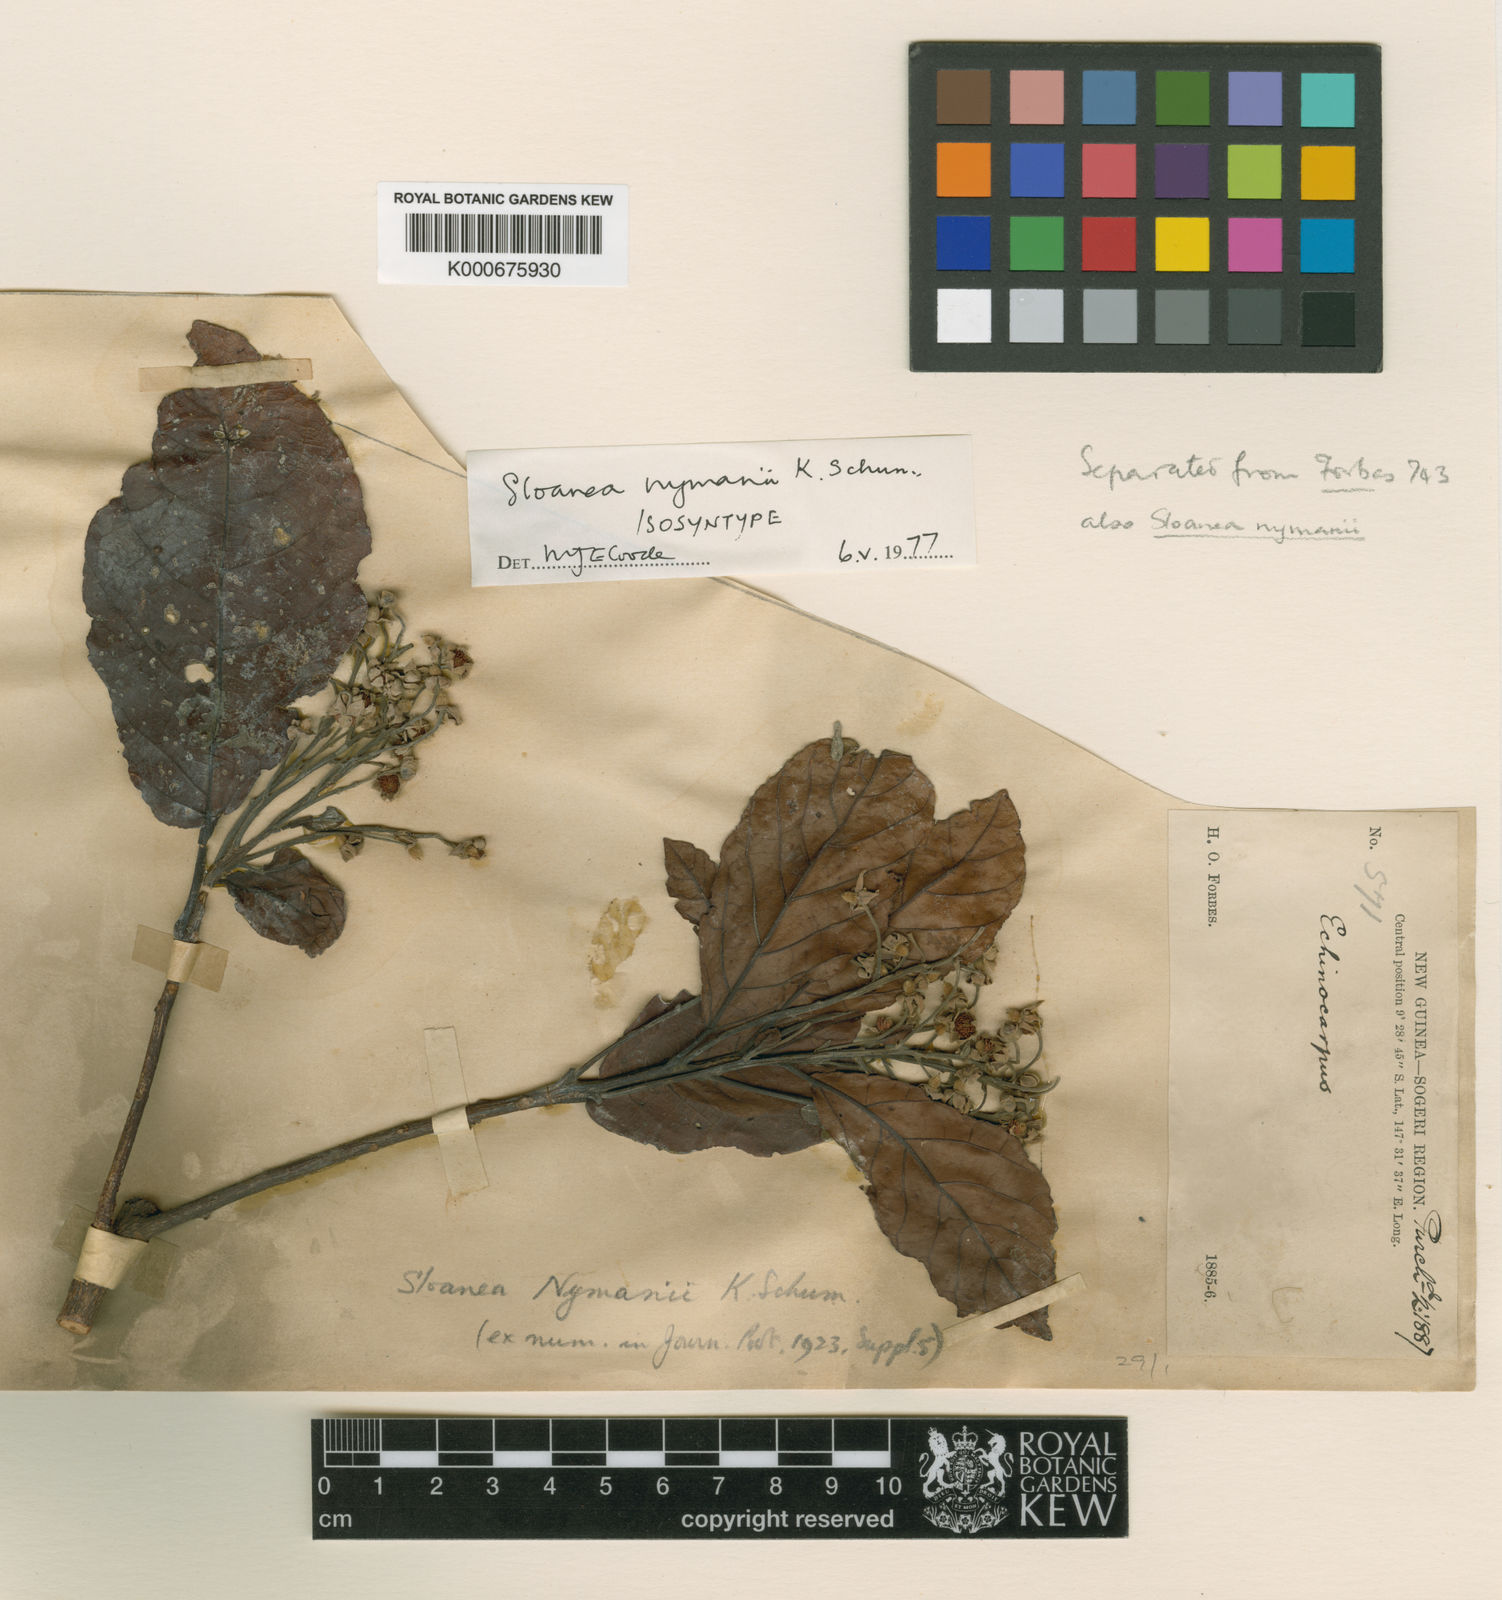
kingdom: Plantae
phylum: Tracheophyta
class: Magnoliopsida
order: Oxalidales
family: Elaeocarpaceae
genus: Sloanea
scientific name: Sloanea nymanii
